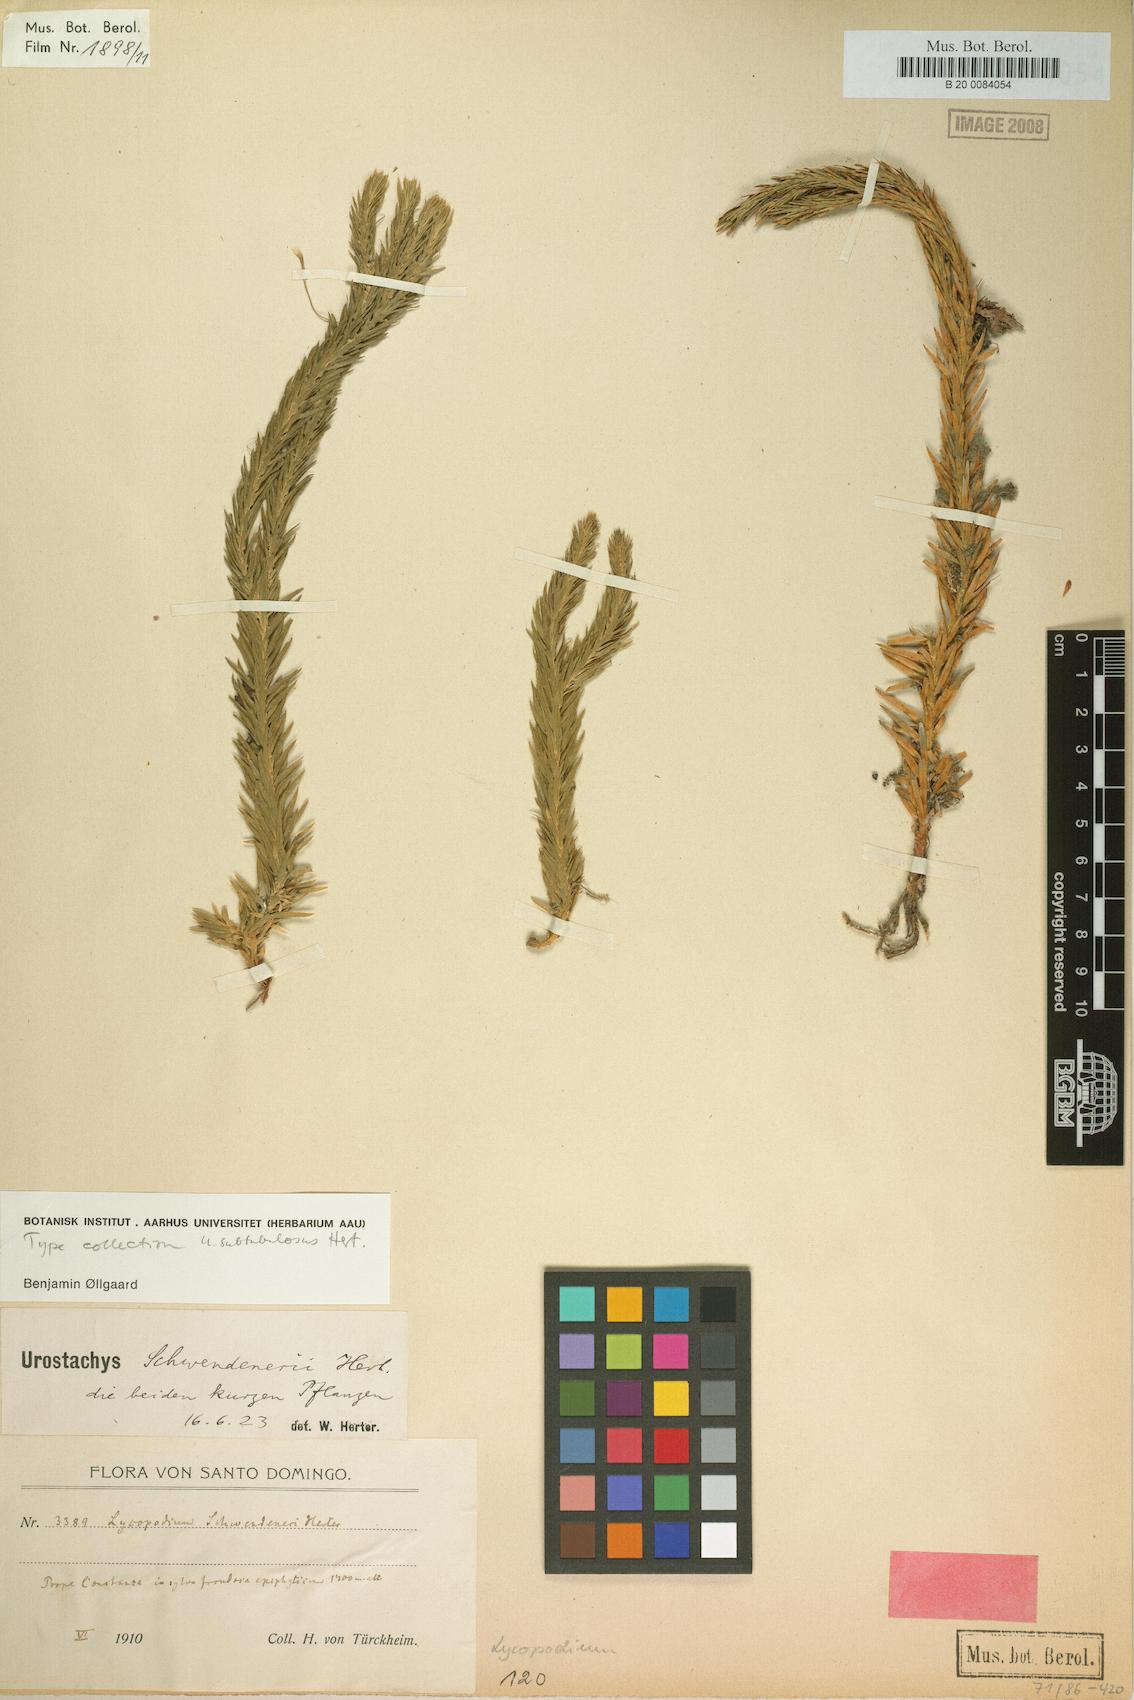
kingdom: Plantae
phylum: Tracheophyta
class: Lycopodiopsida
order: Lycopodiales
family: Lycopodiaceae
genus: Phlegmariurus
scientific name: Phlegmariurus subtubulosus
